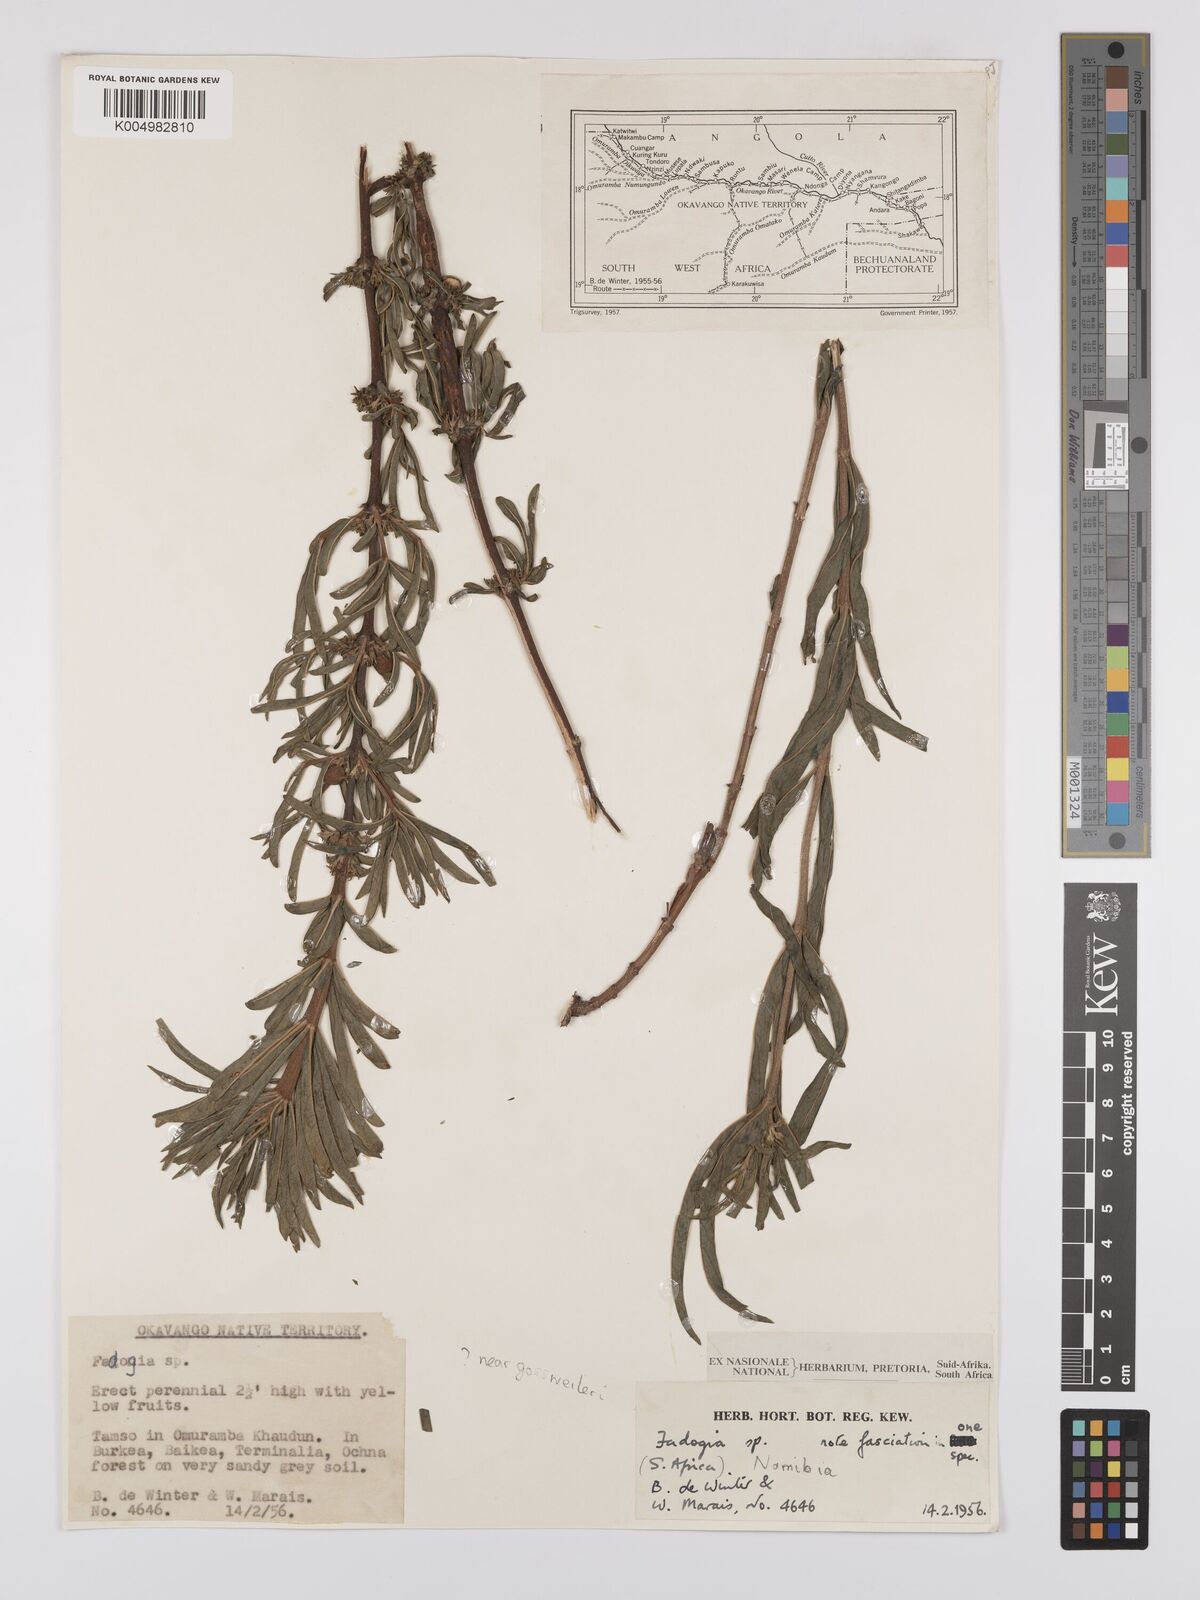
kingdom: Plantae
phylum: Tracheophyta
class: Magnoliopsida
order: Gentianales
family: Rubiaceae
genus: Fadogia
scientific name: Fadogia
